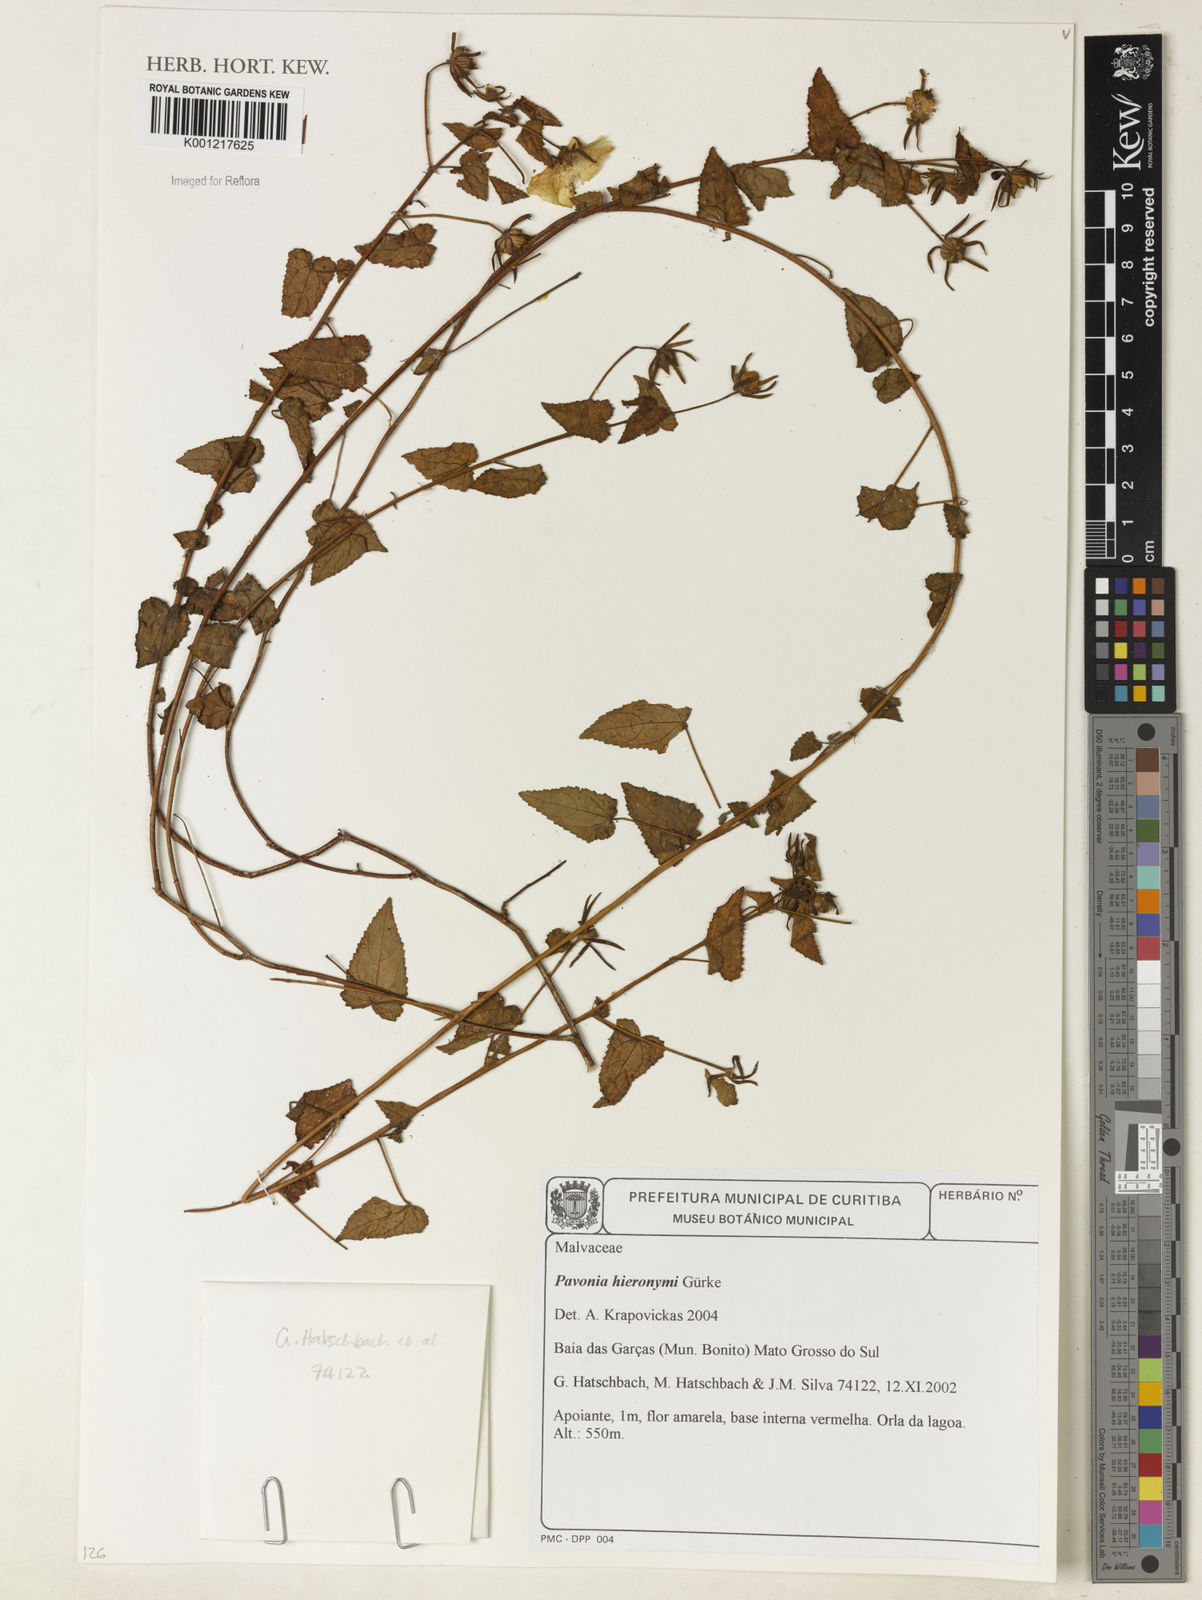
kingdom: Plantae
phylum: Tracheophyta
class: Magnoliopsida
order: Malvales
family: Malvaceae
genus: Pavonia
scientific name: Pavonia
